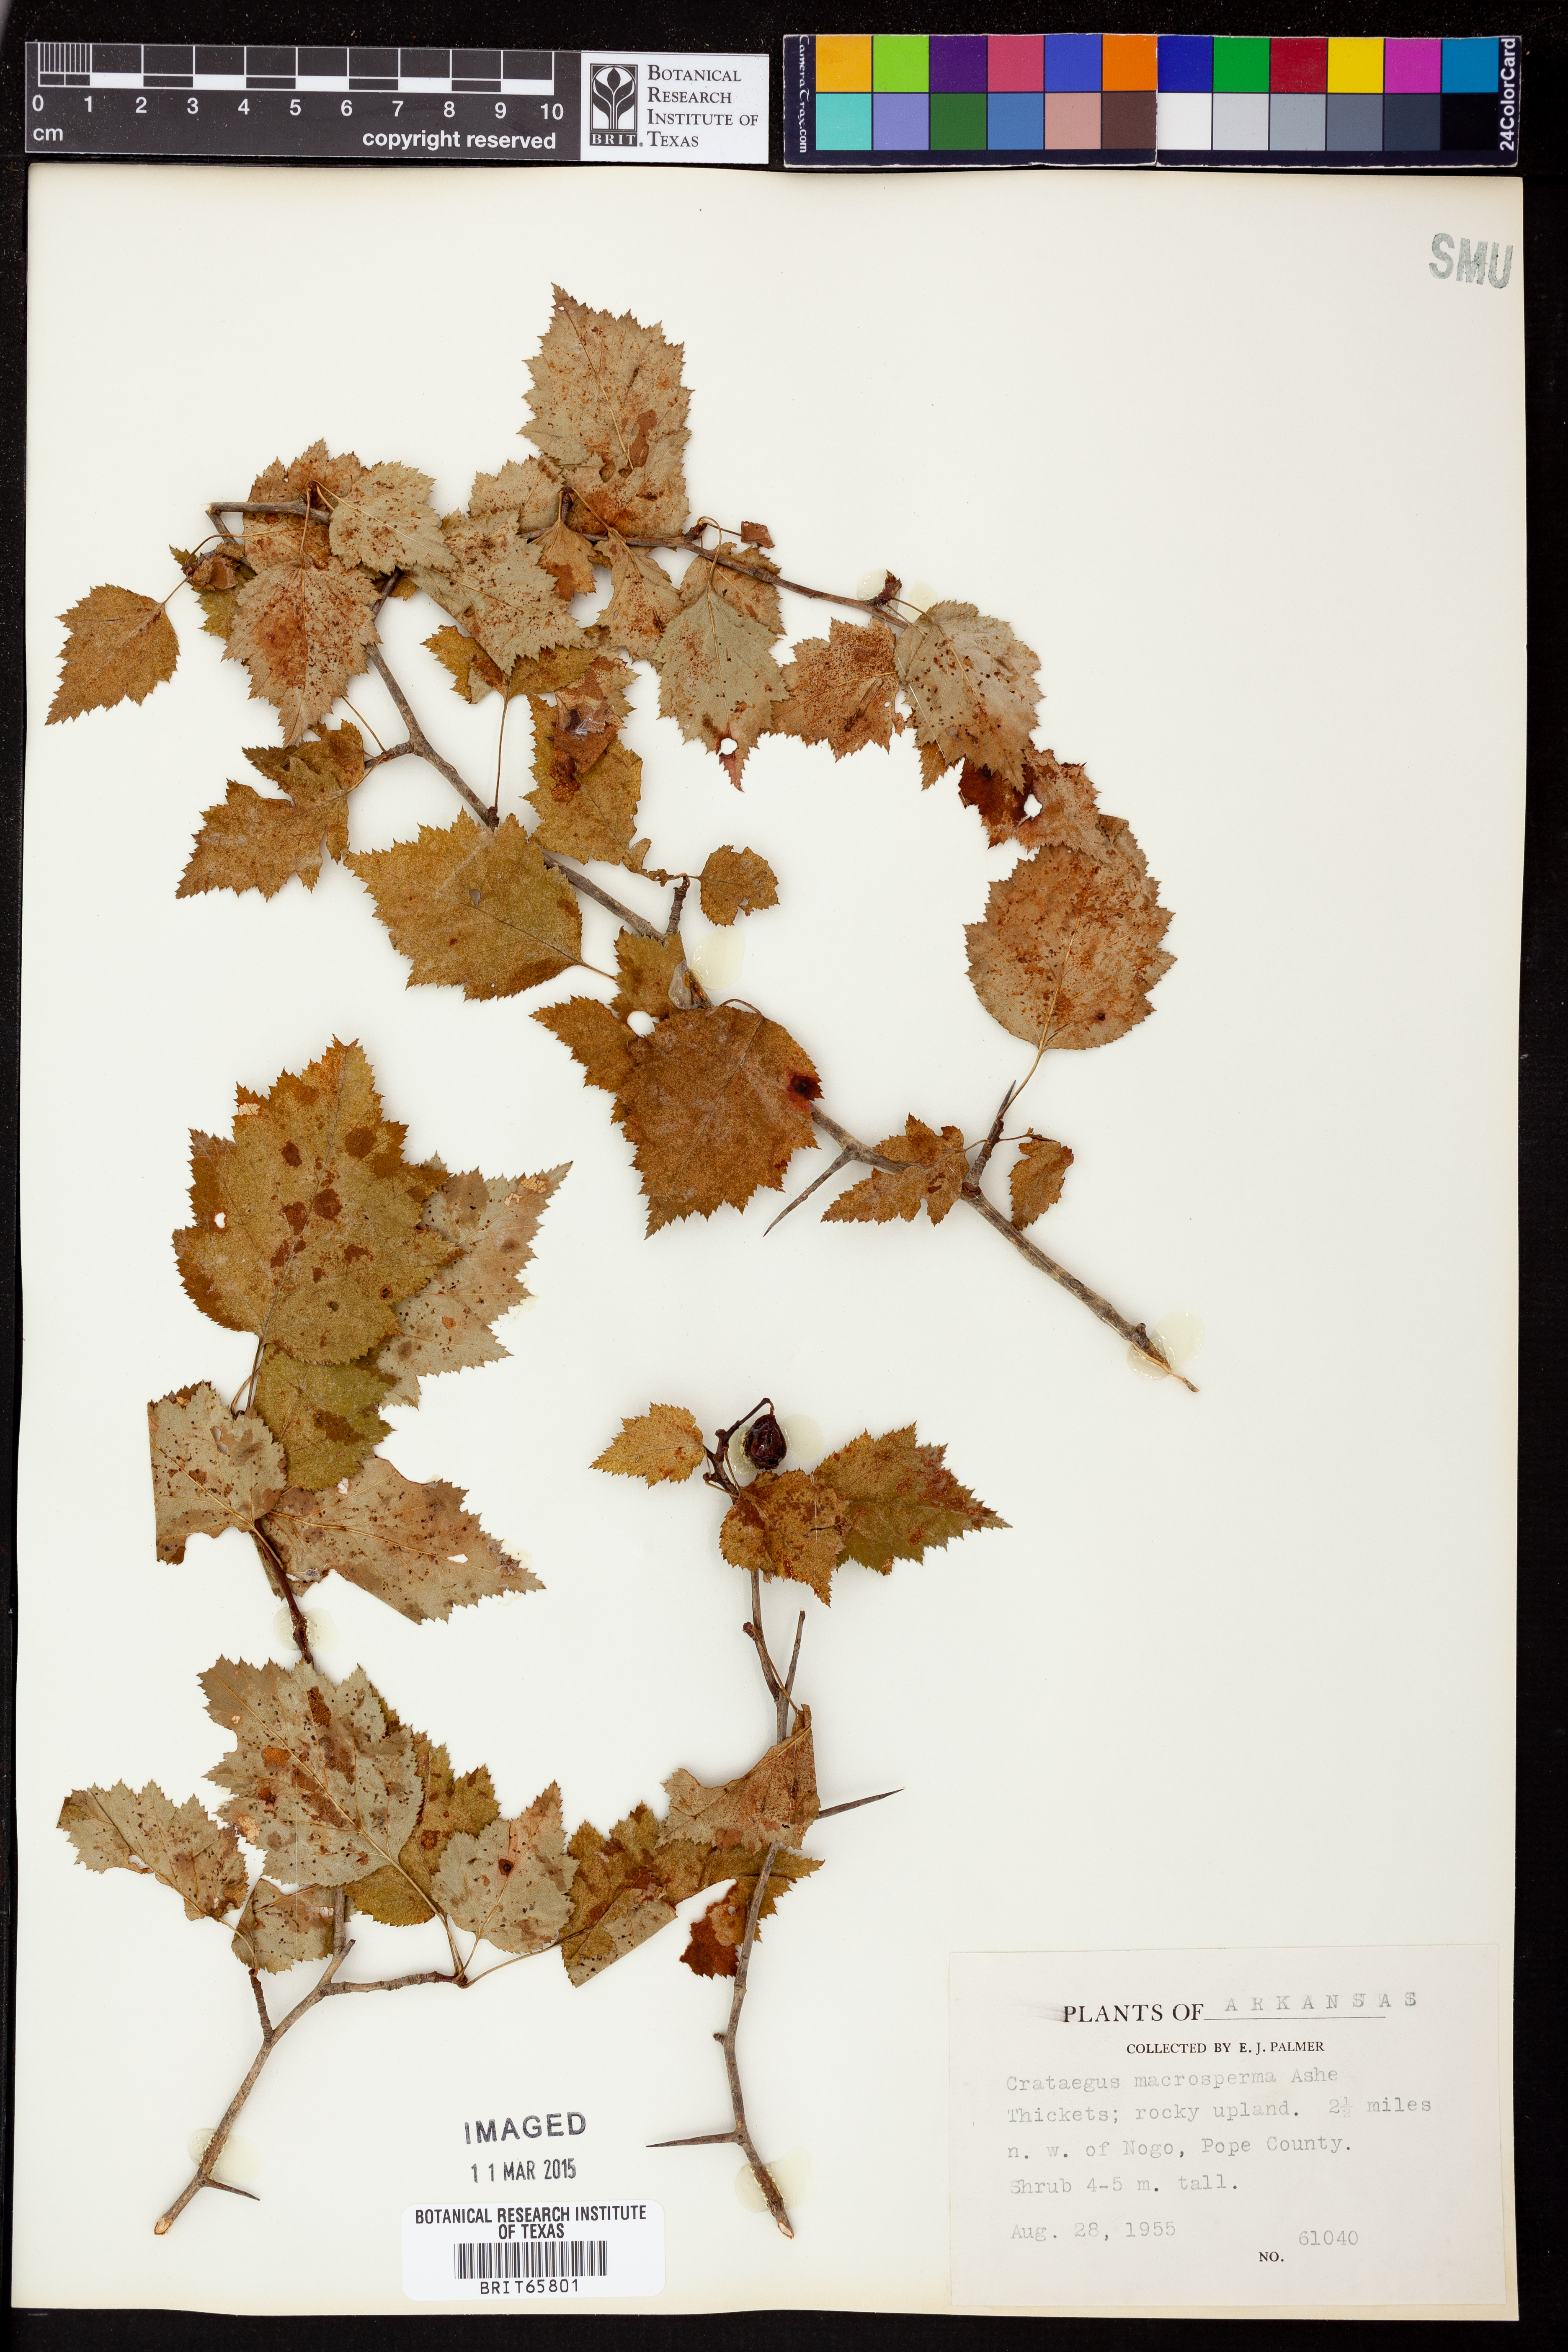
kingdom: Plantae
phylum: Tracheophyta
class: Magnoliopsida
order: Rosales
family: Rosaceae
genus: Crataegus
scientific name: Crataegus macrosperma
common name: Variable hawthorn
